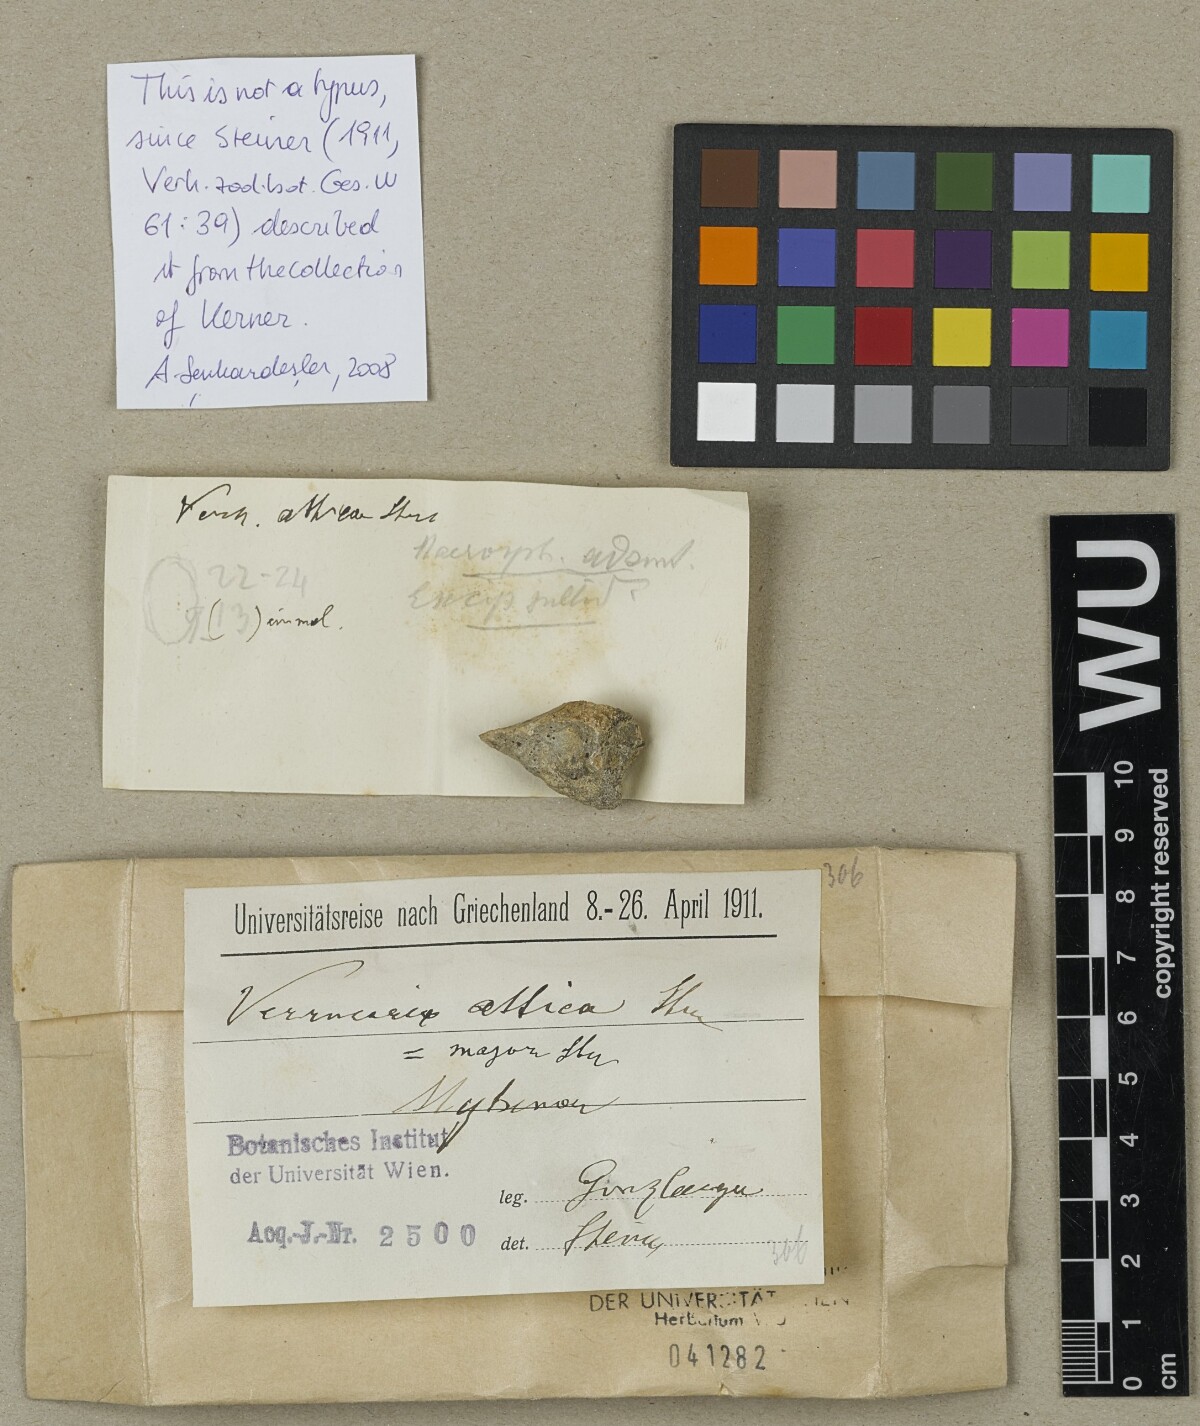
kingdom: Fungi
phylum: Ascomycota
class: Eurotiomycetes
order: Verrucariales
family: Verrucariaceae
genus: Verrucaria
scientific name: Verrucaria attica
